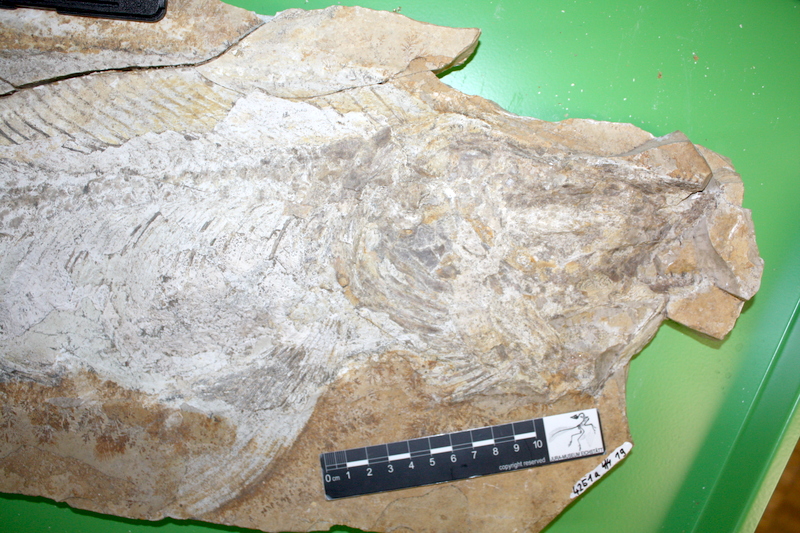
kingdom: Animalia
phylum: Chordata
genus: Callopterus
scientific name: Callopterus armata
